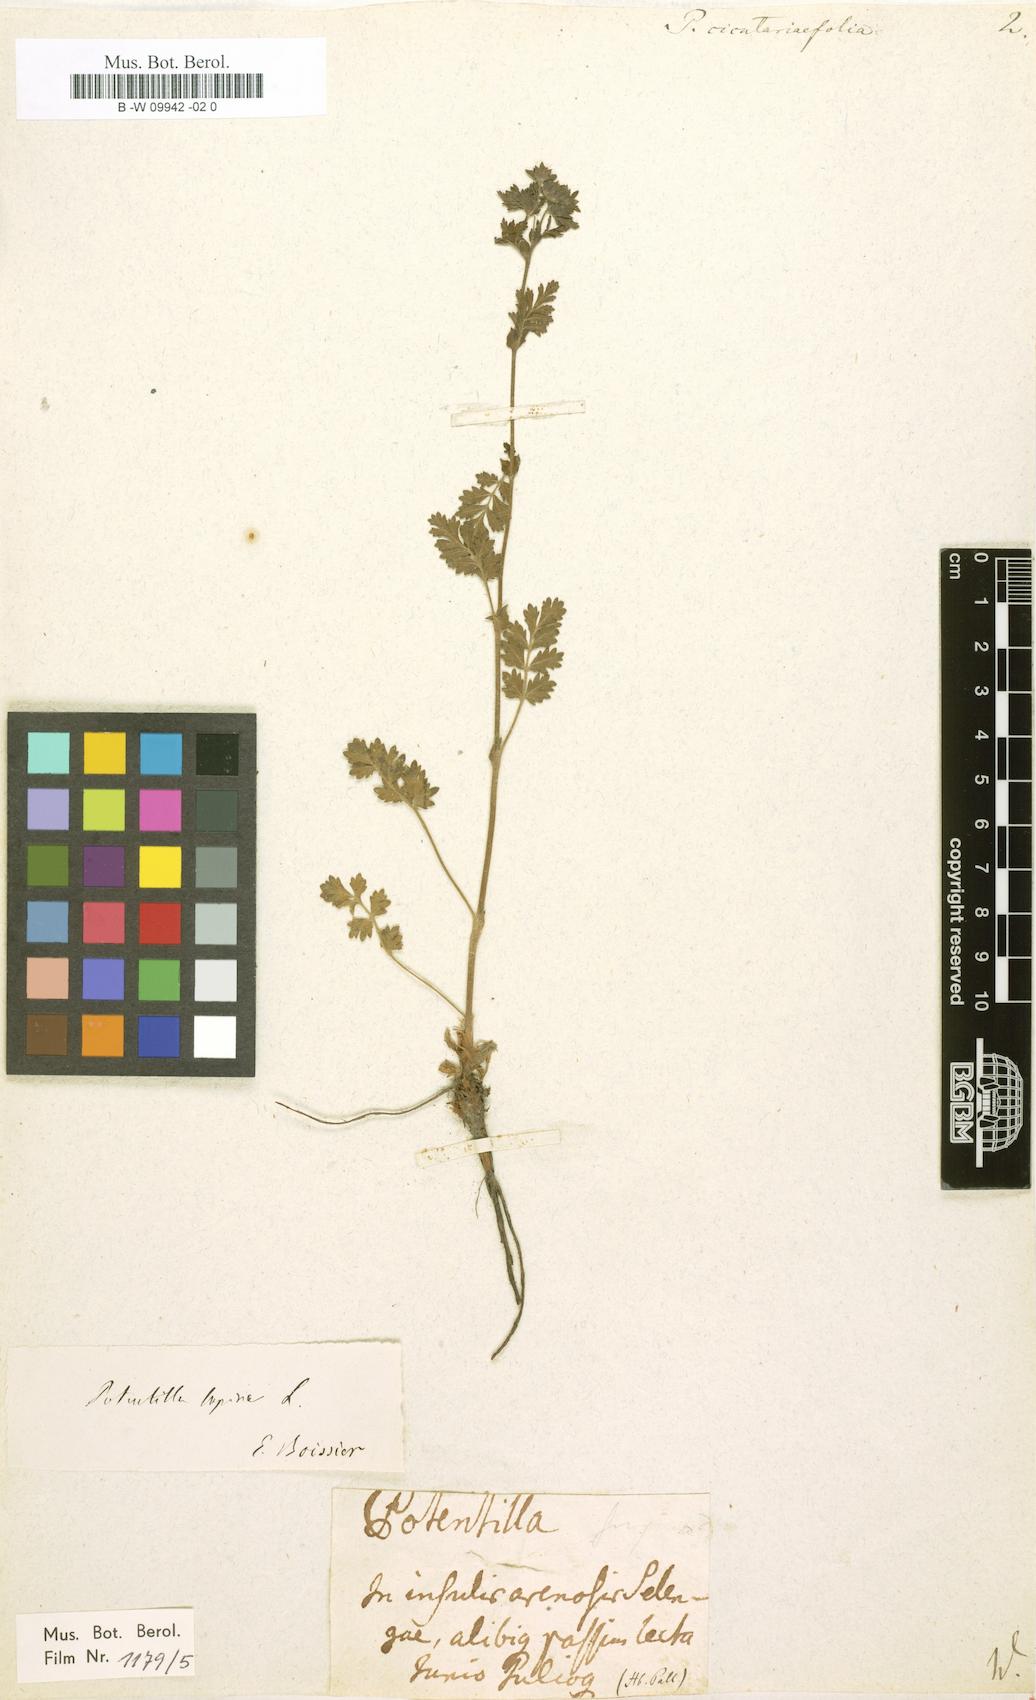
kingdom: Plantae
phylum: Tracheophyta
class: Magnoliopsida
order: Rosales
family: Rosaceae
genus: Potentilla
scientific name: Potentilla supina
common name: Prostrate cinquefoil
